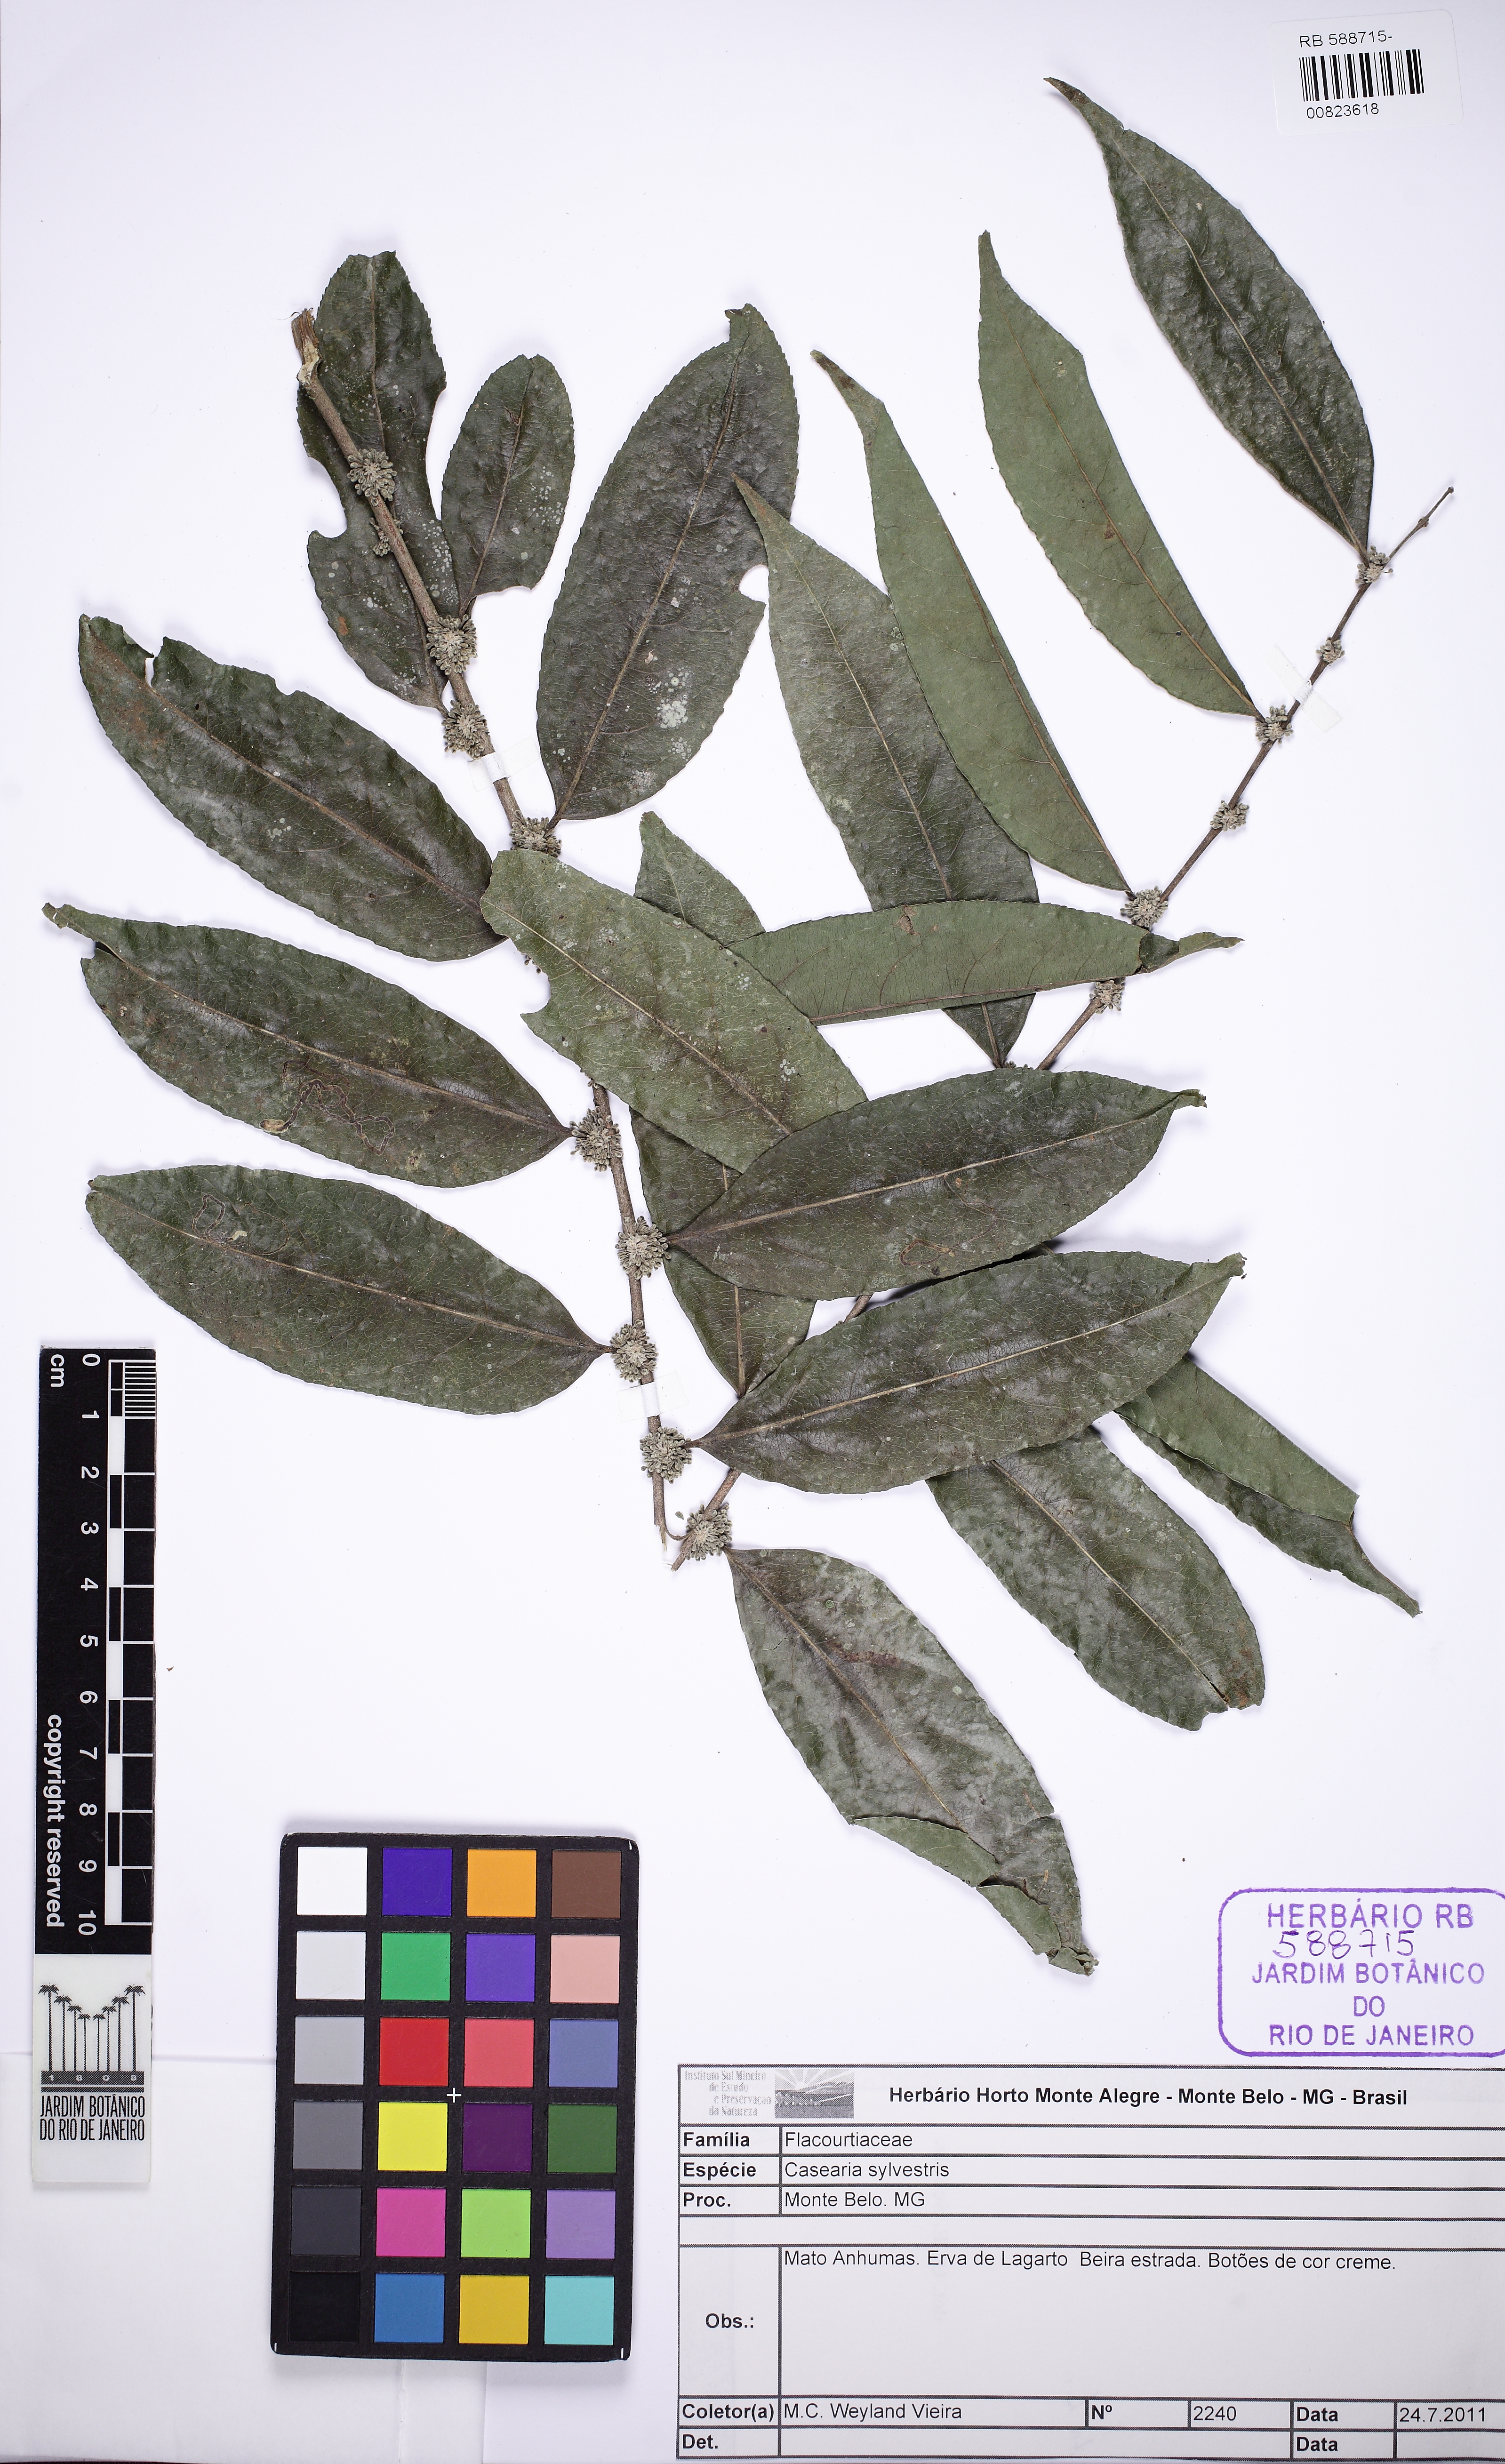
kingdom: Plantae
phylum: Tracheophyta
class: Magnoliopsida
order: Malpighiales
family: Salicaceae
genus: Casearia
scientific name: Casearia sylvestris
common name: Wild sage
